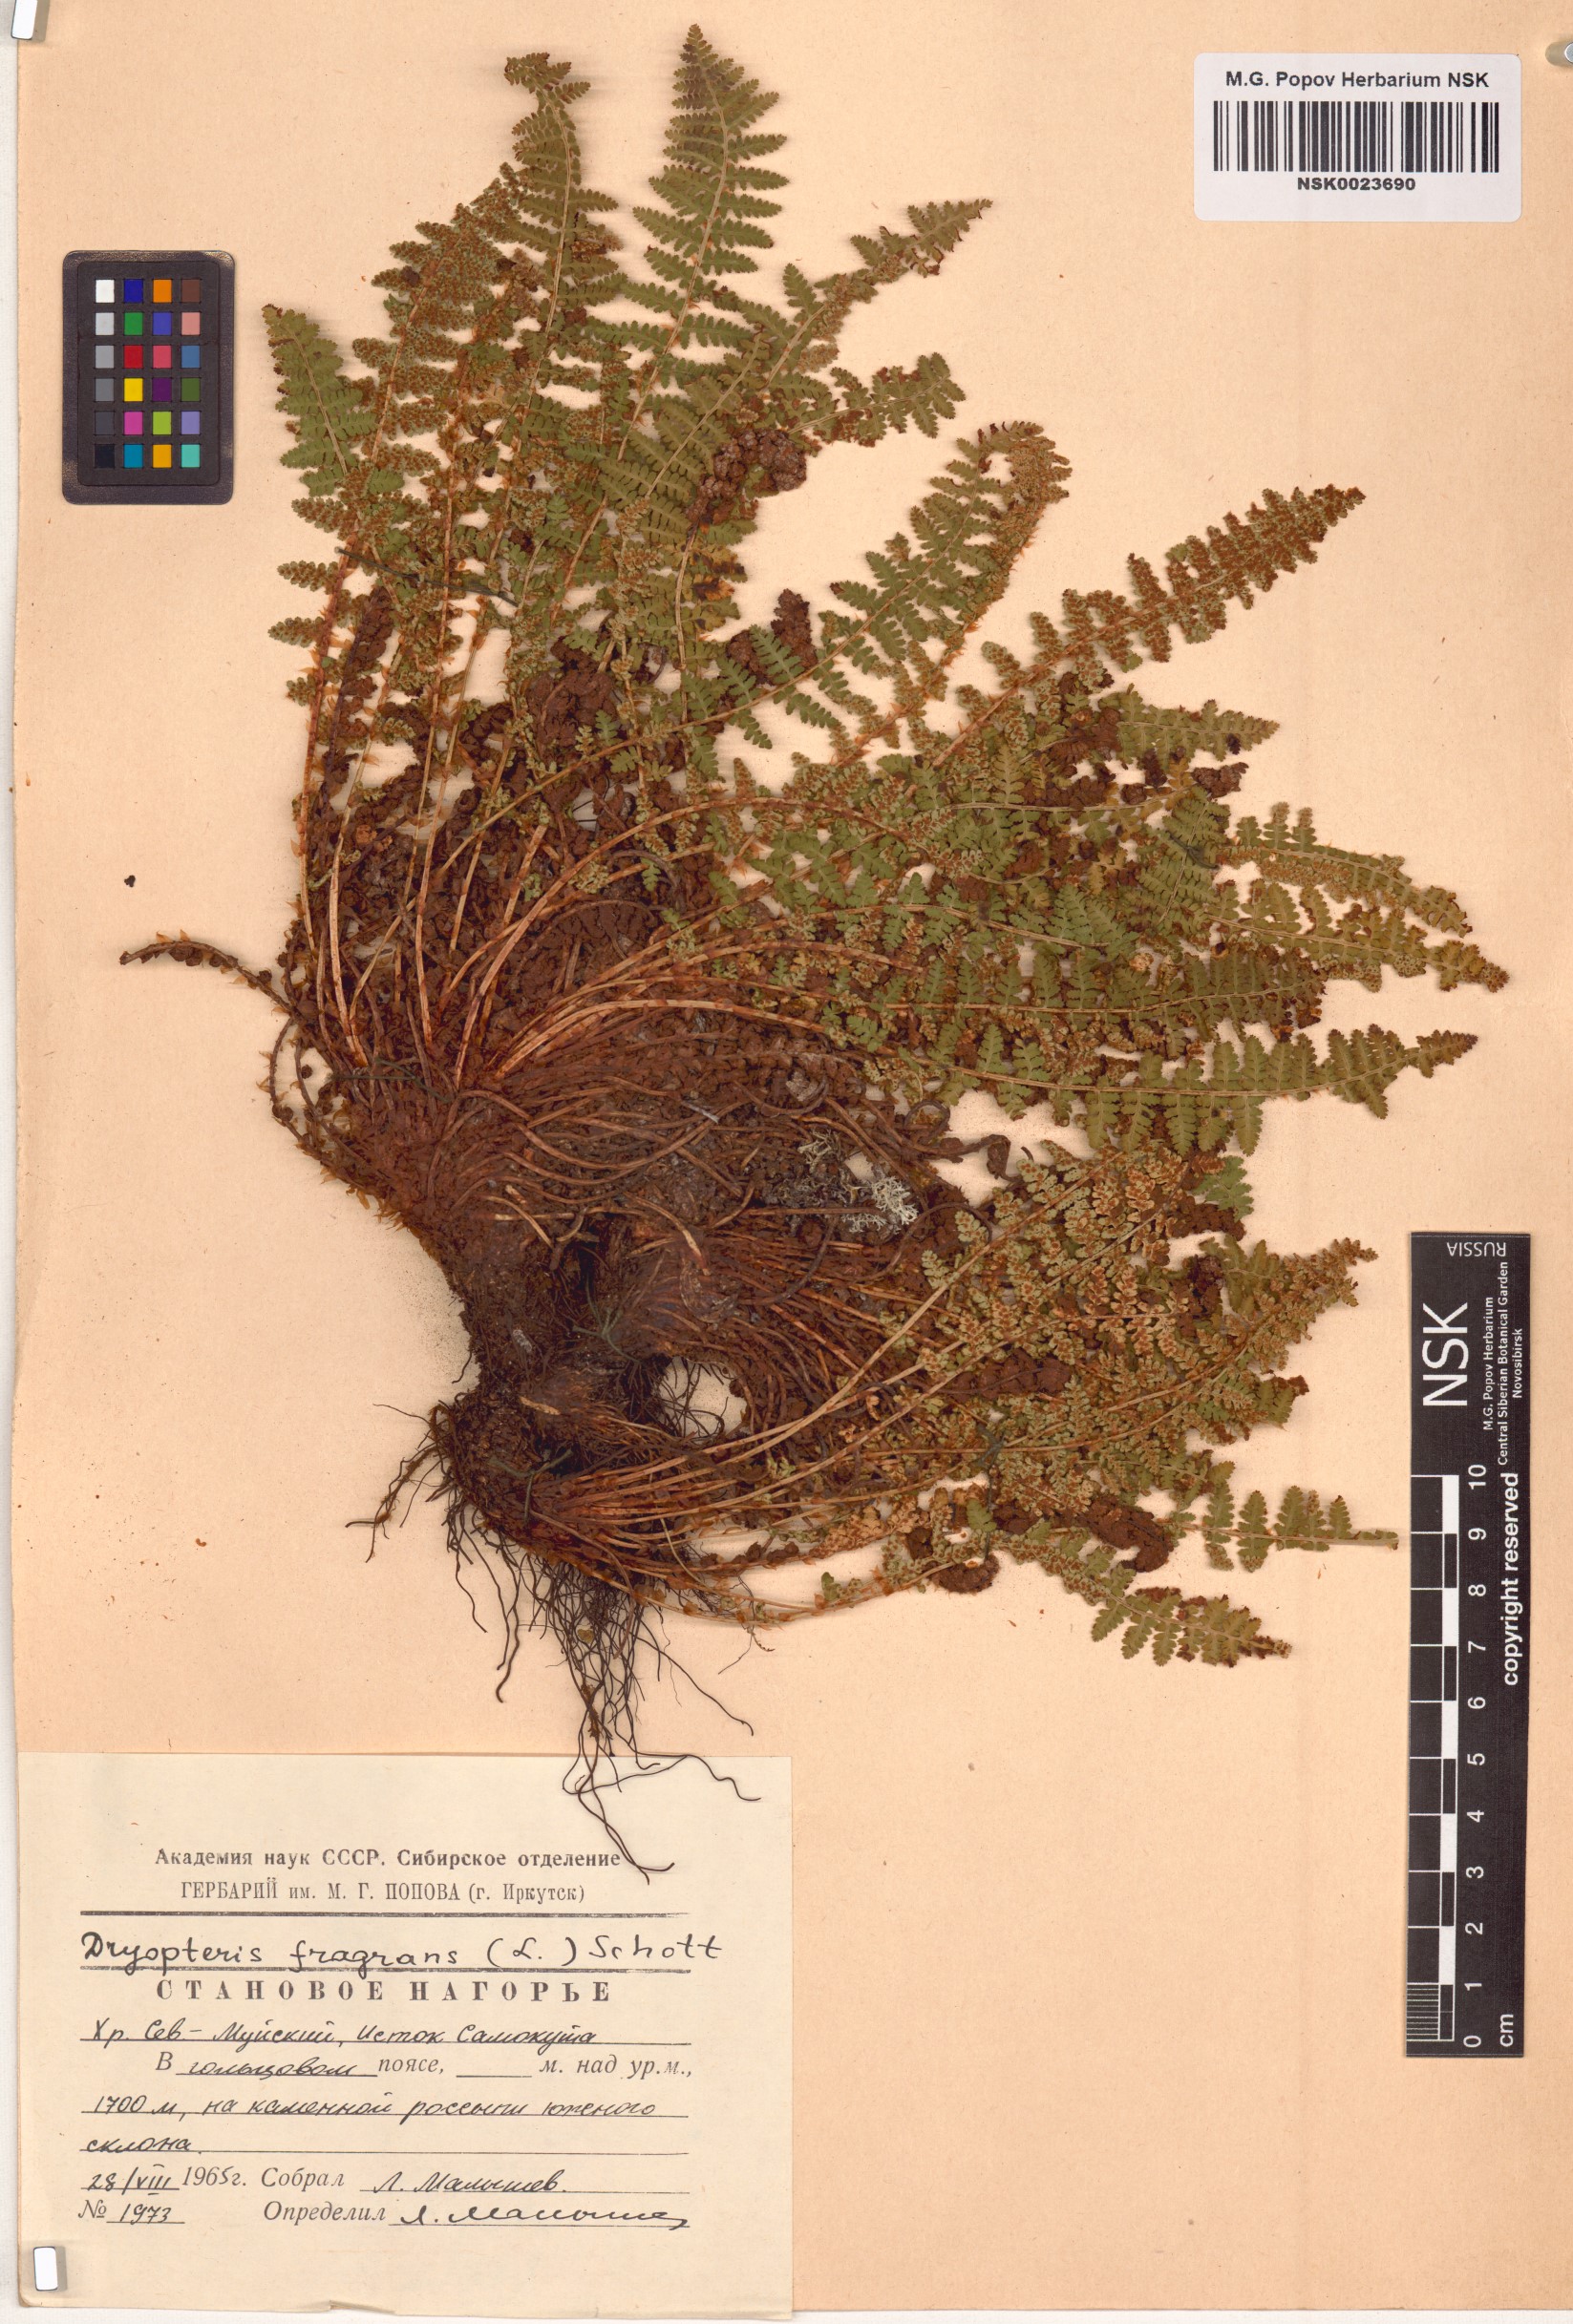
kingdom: Plantae
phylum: Tracheophyta
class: Polypodiopsida
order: Polypodiales
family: Dryopteridaceae
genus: Dryopteris
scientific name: Dryopteris fragrans
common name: Fragrant wood fern
